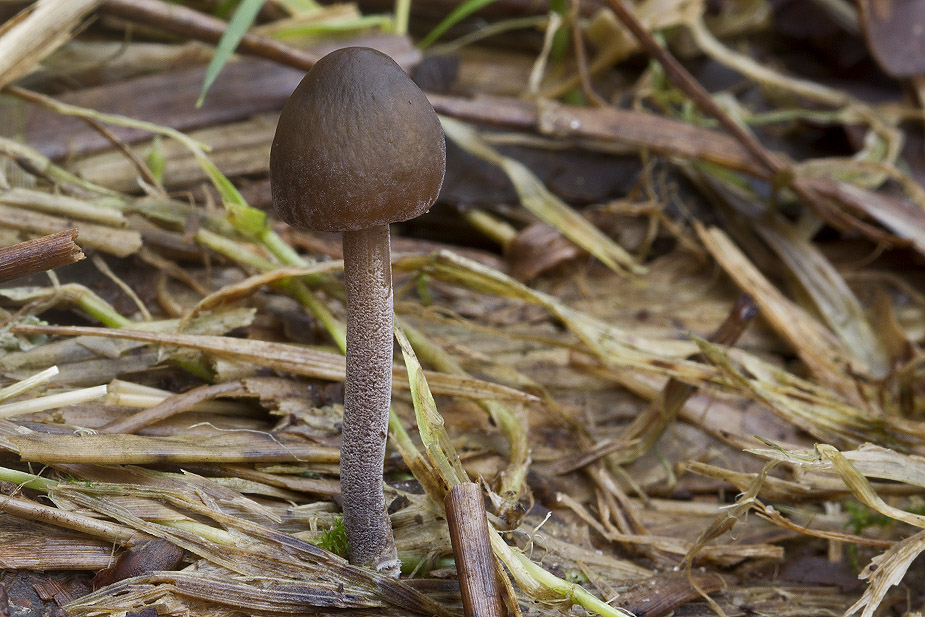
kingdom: Fungi
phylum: Basidiomycota
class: Agaricomycetes
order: Agaricales
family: Bolbitiaceae
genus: Panaeolus
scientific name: Panaeolus acuminatus
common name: høj glanshat
